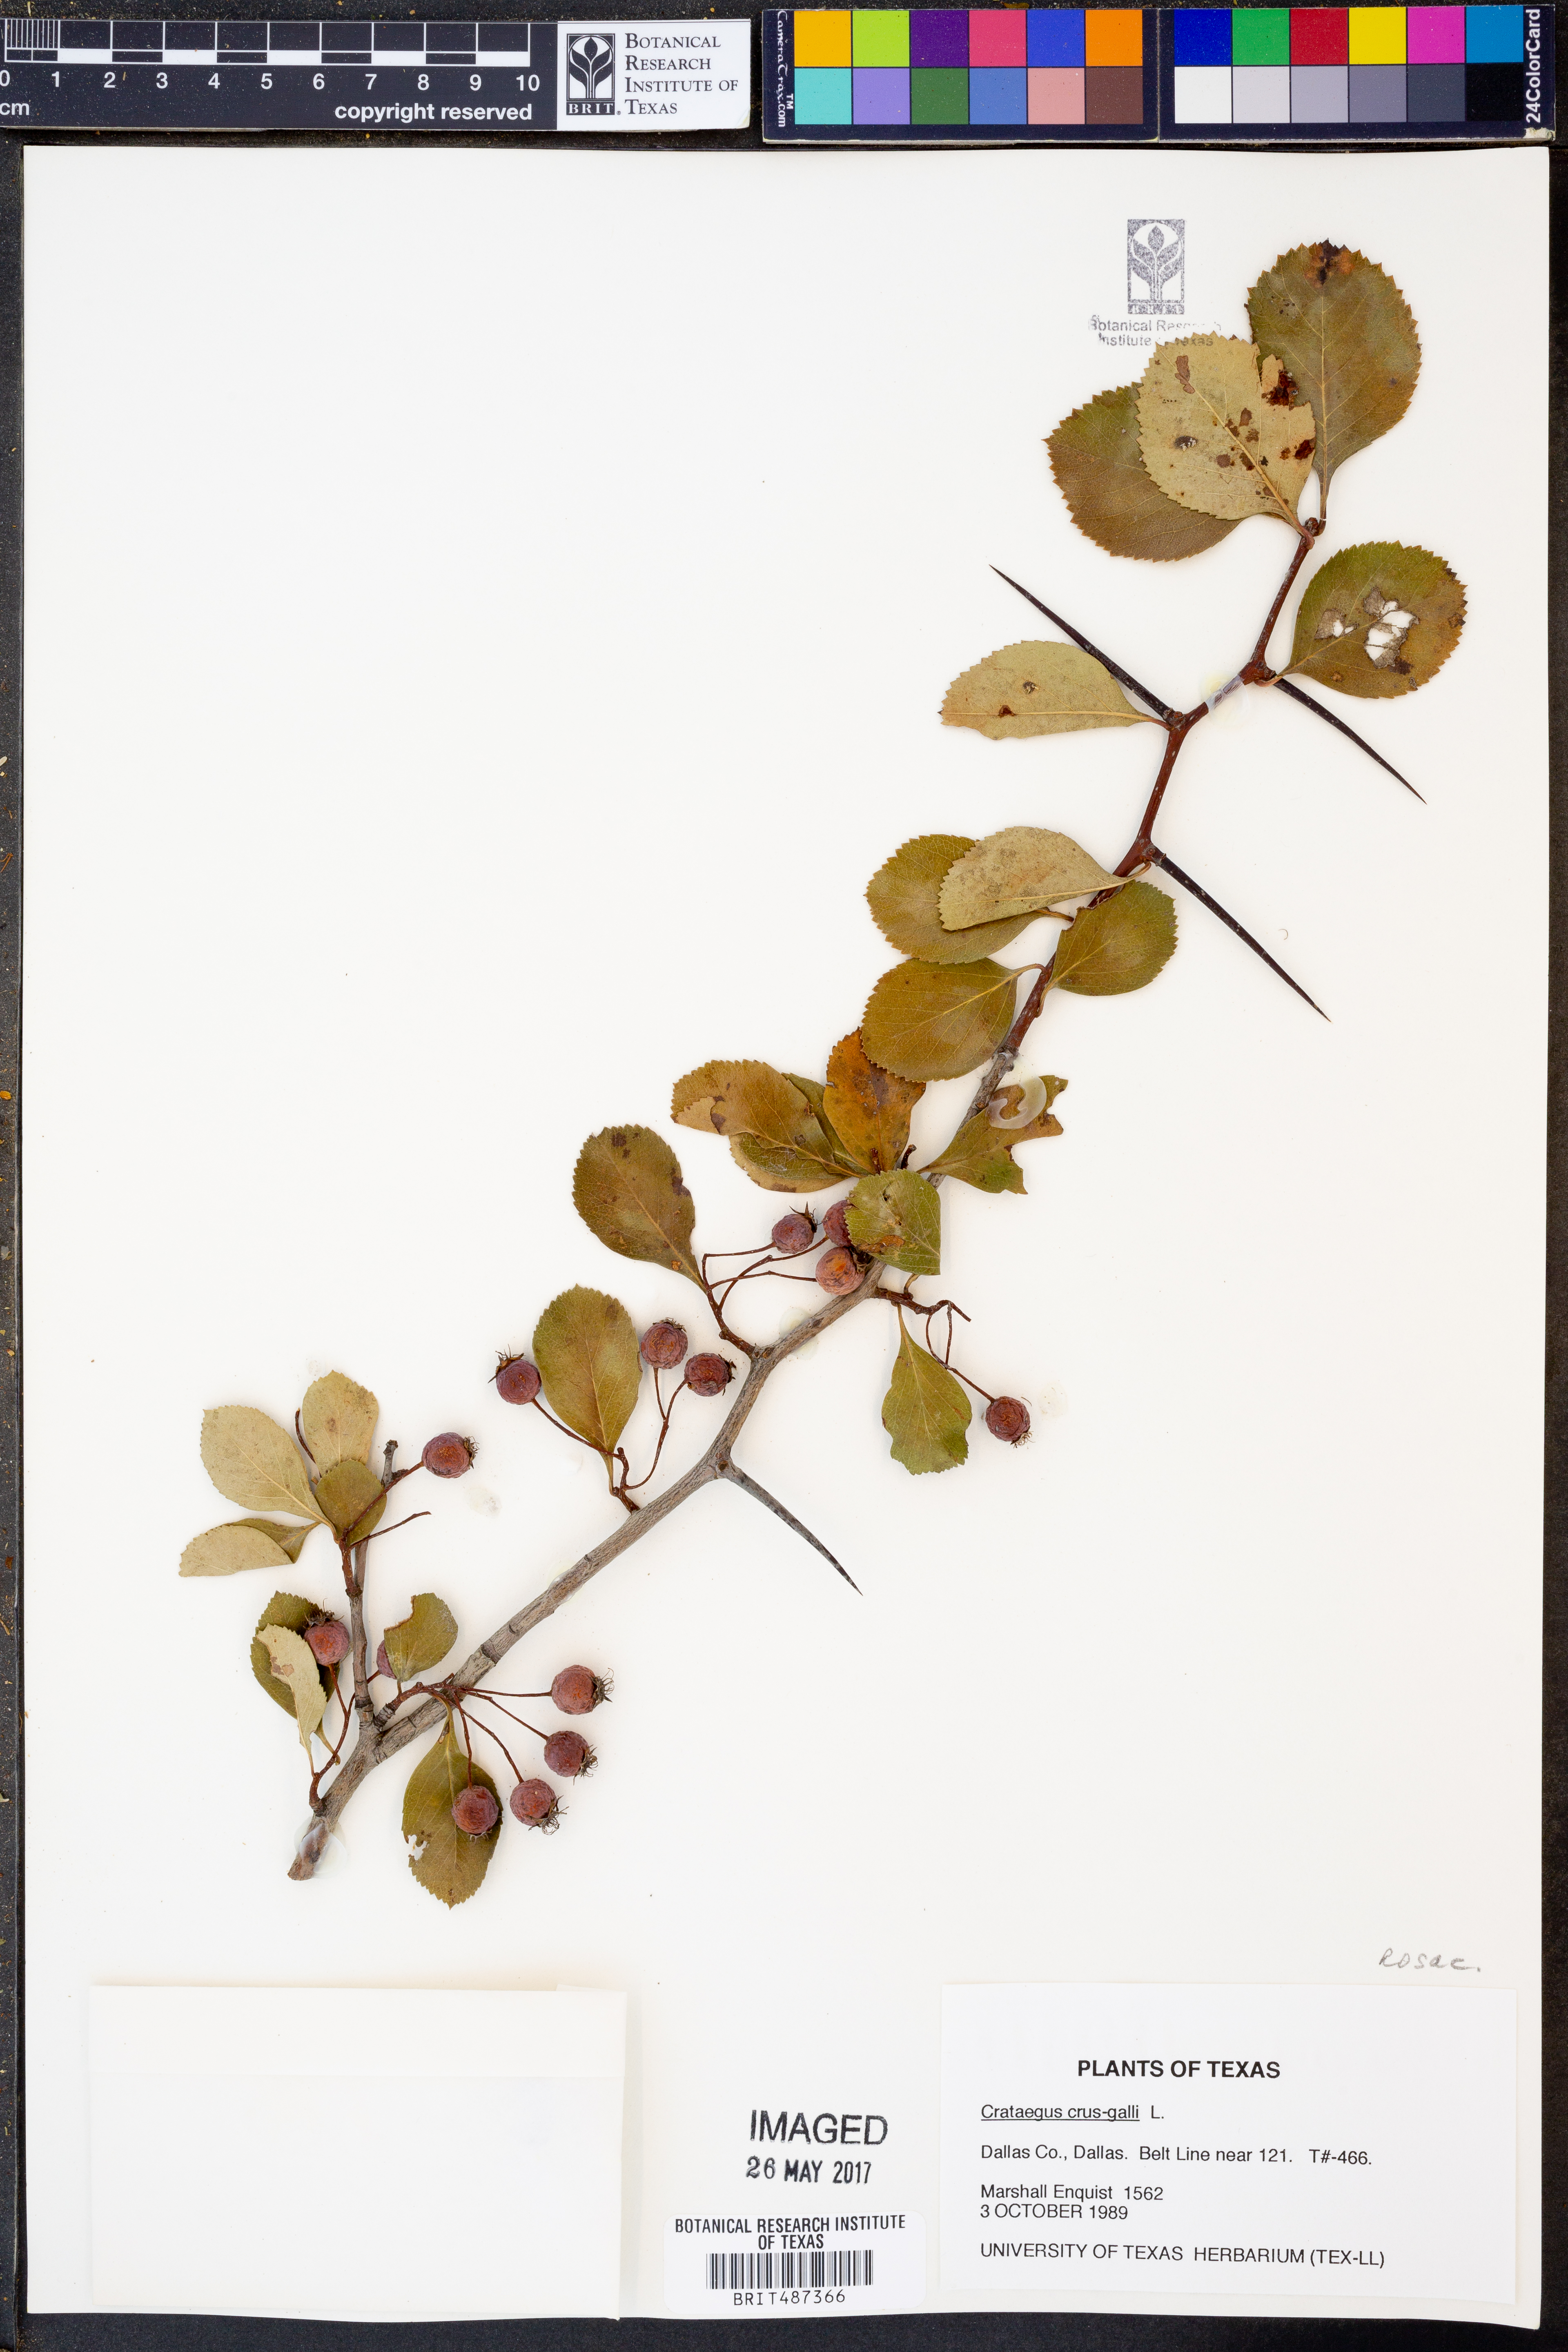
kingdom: Plantae
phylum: Tracheophyta
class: Magnoliopsida
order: Rosales
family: Rosaceae
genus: Crataegus
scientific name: Crataegus crux
